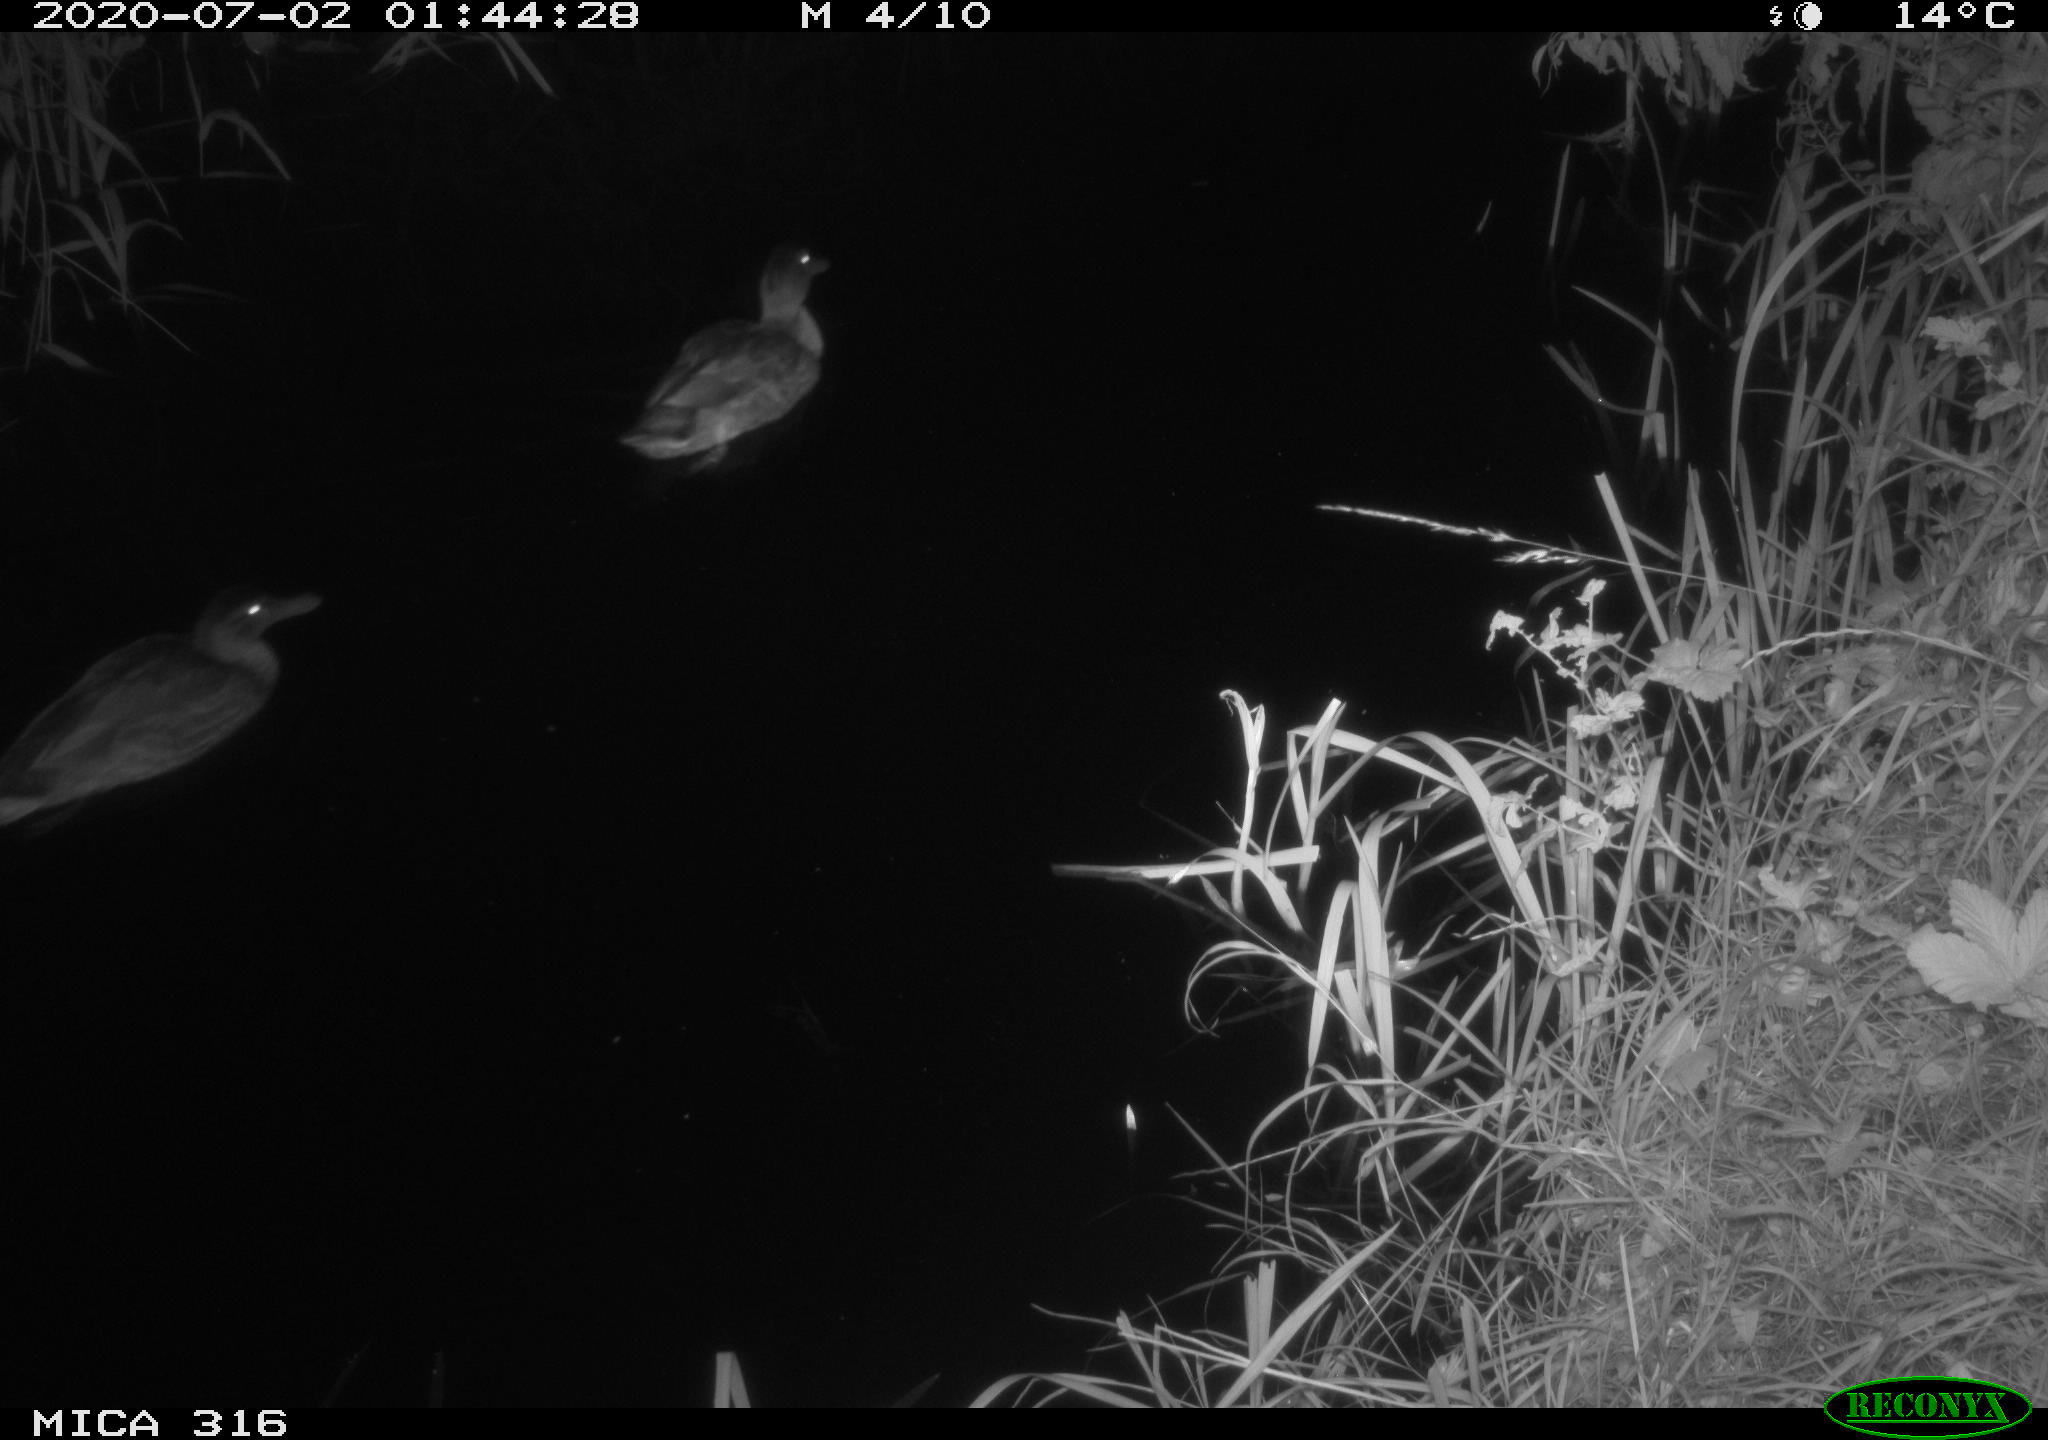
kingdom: Animalia
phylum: Chordata
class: Aves
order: Anseriformes
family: Anatidae
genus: Anas
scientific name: Anas platyrhynchos
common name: Mallard
